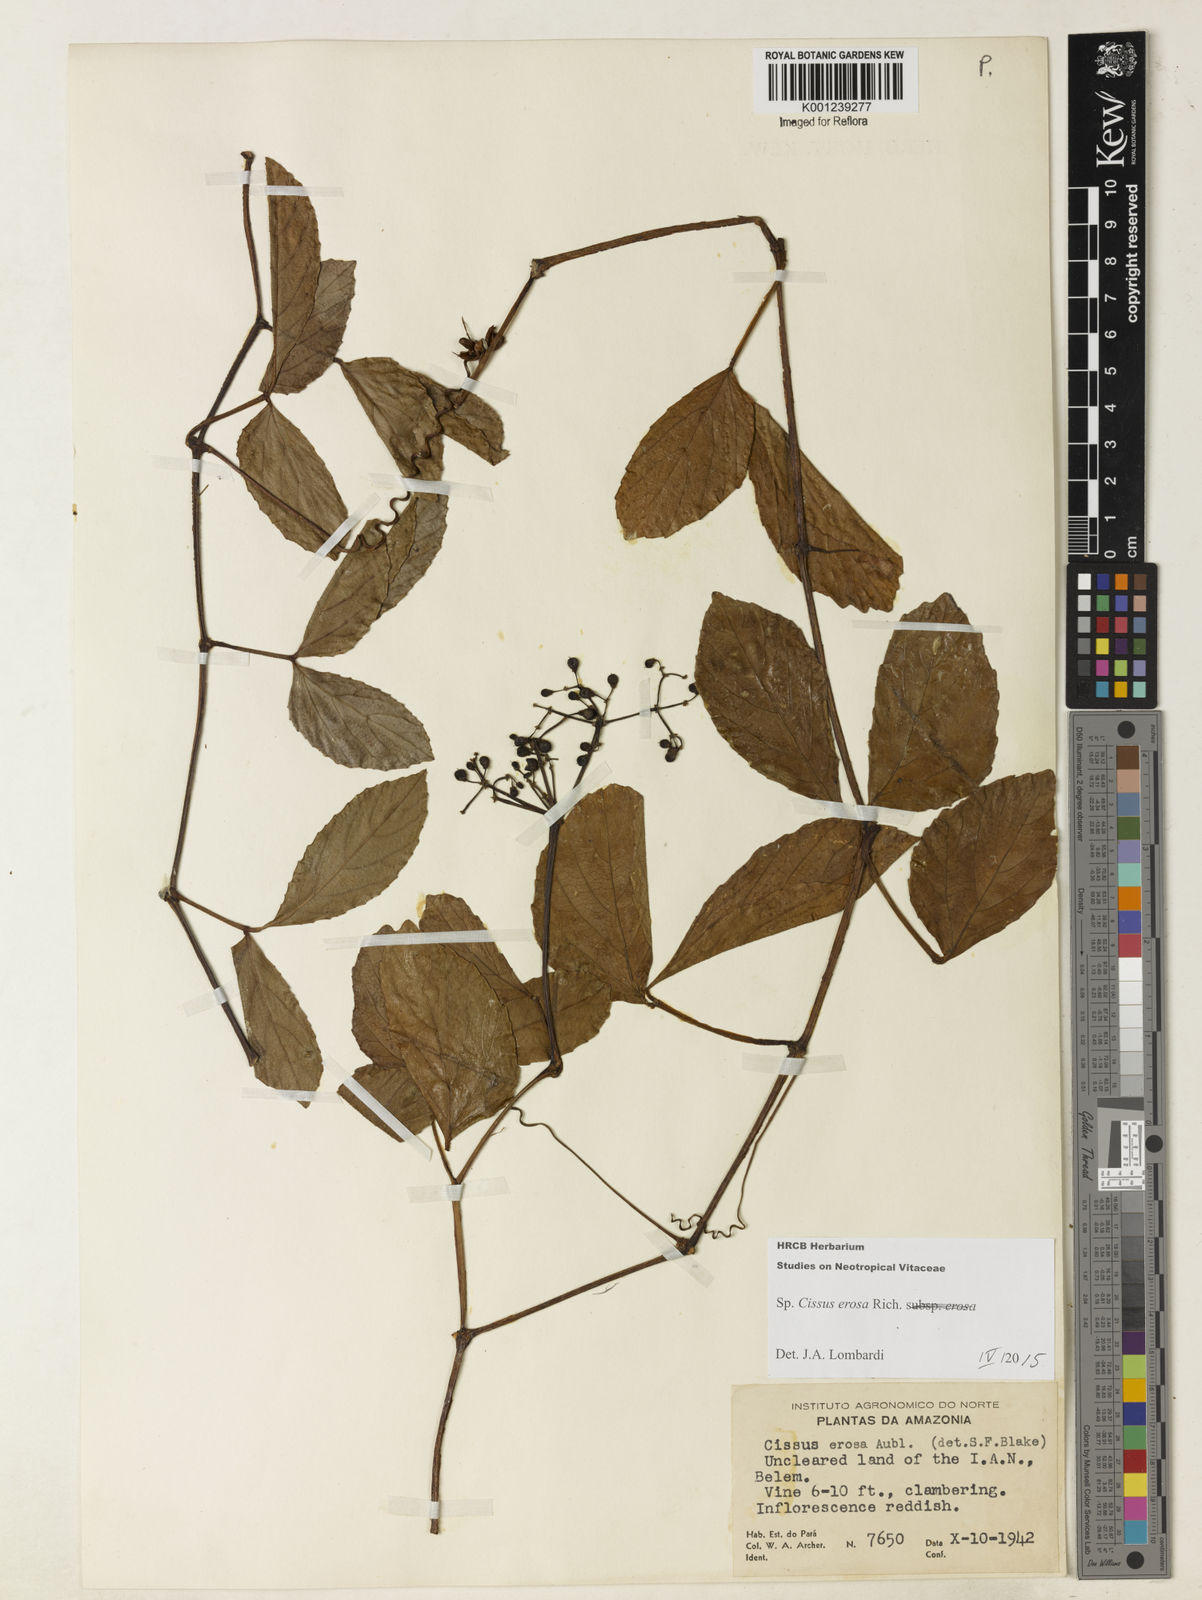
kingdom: Plantae
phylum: Tracheophyta
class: Magnoliopsida
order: Vitales
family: Vitaceae
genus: Cissus
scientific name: Cissus erosa
